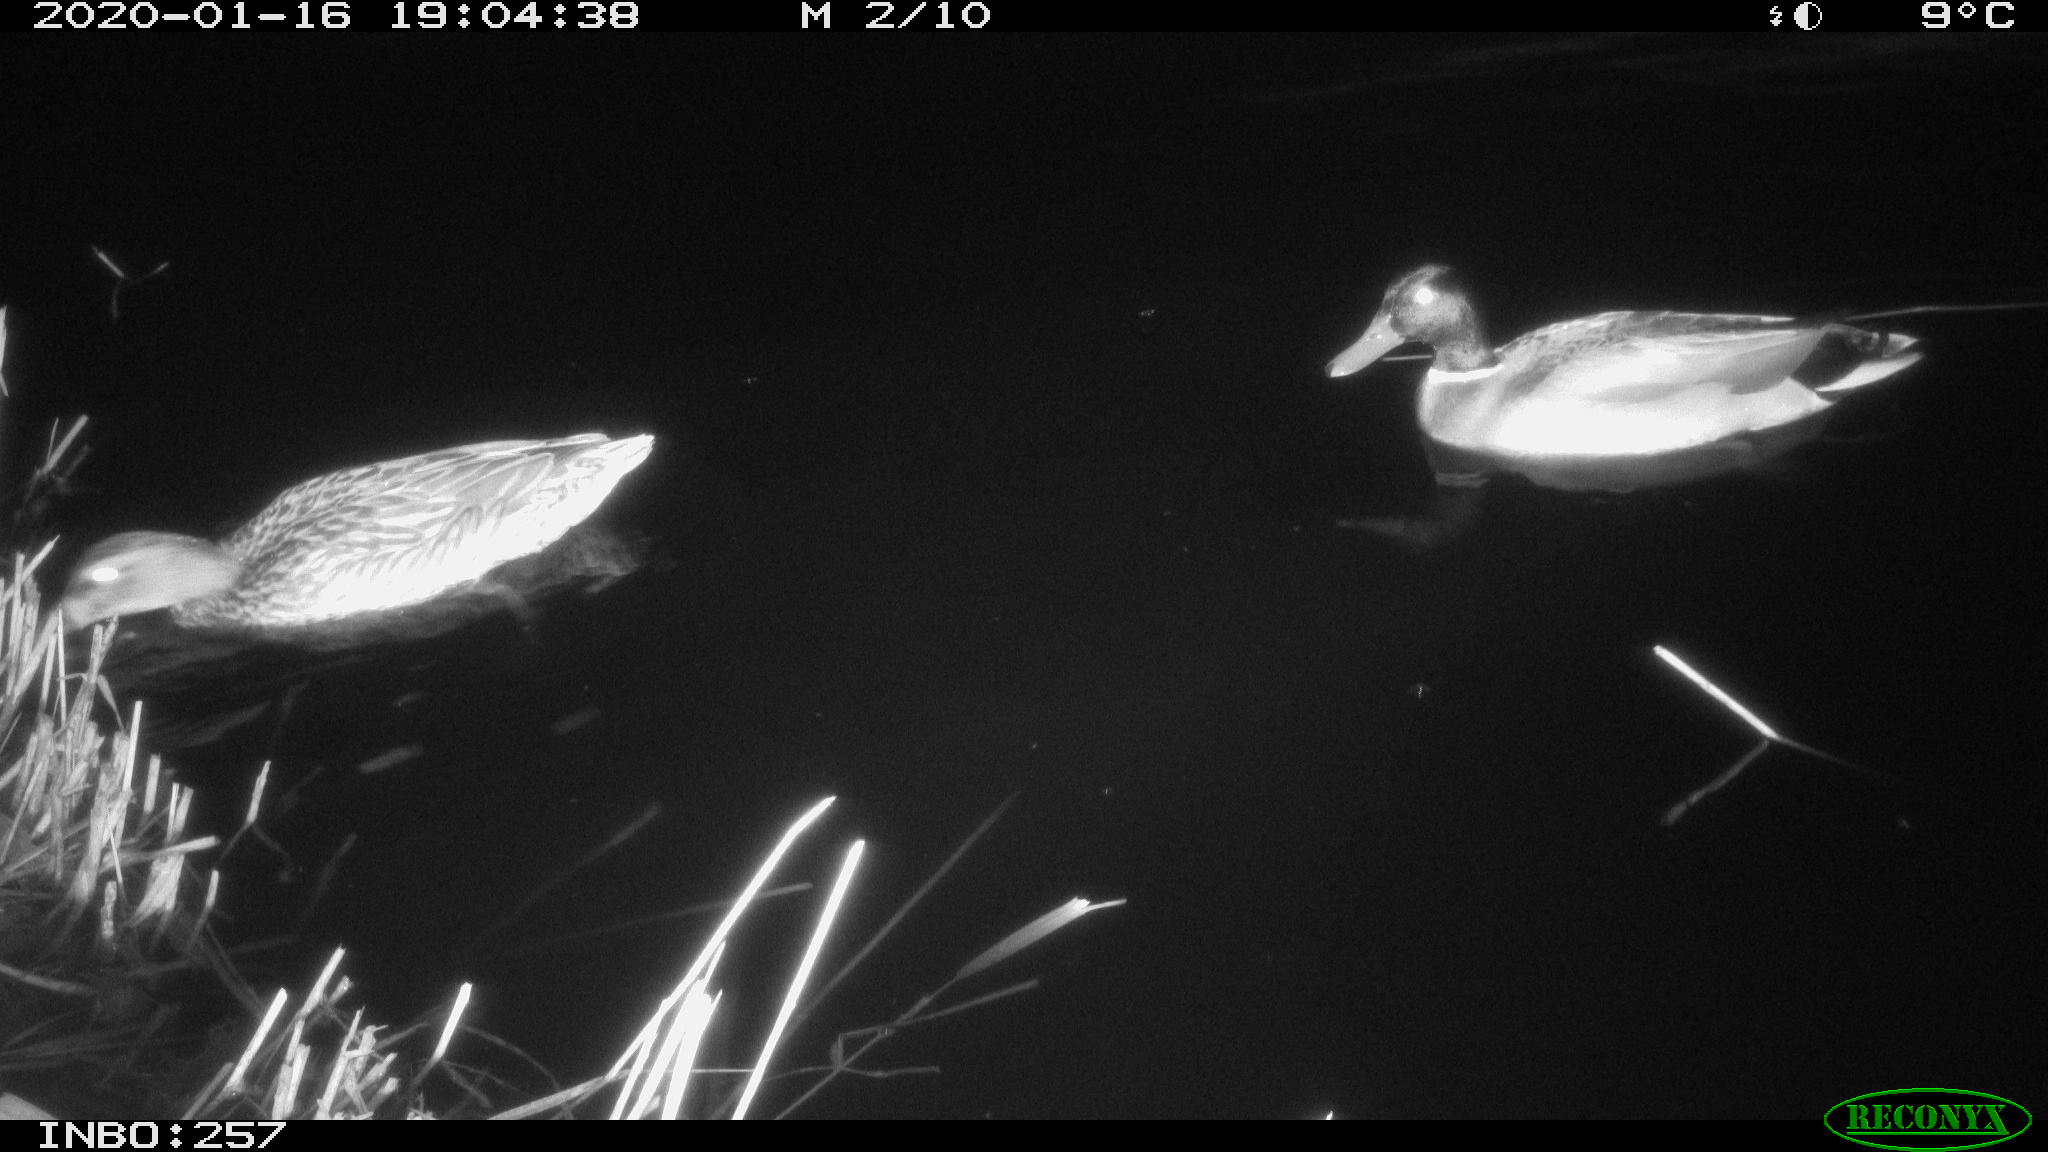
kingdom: Animalia
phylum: Chordata
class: Aves
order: Anseriformes
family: Anatidae
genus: Anas
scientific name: Anas platyrhynchos
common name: Mallard
